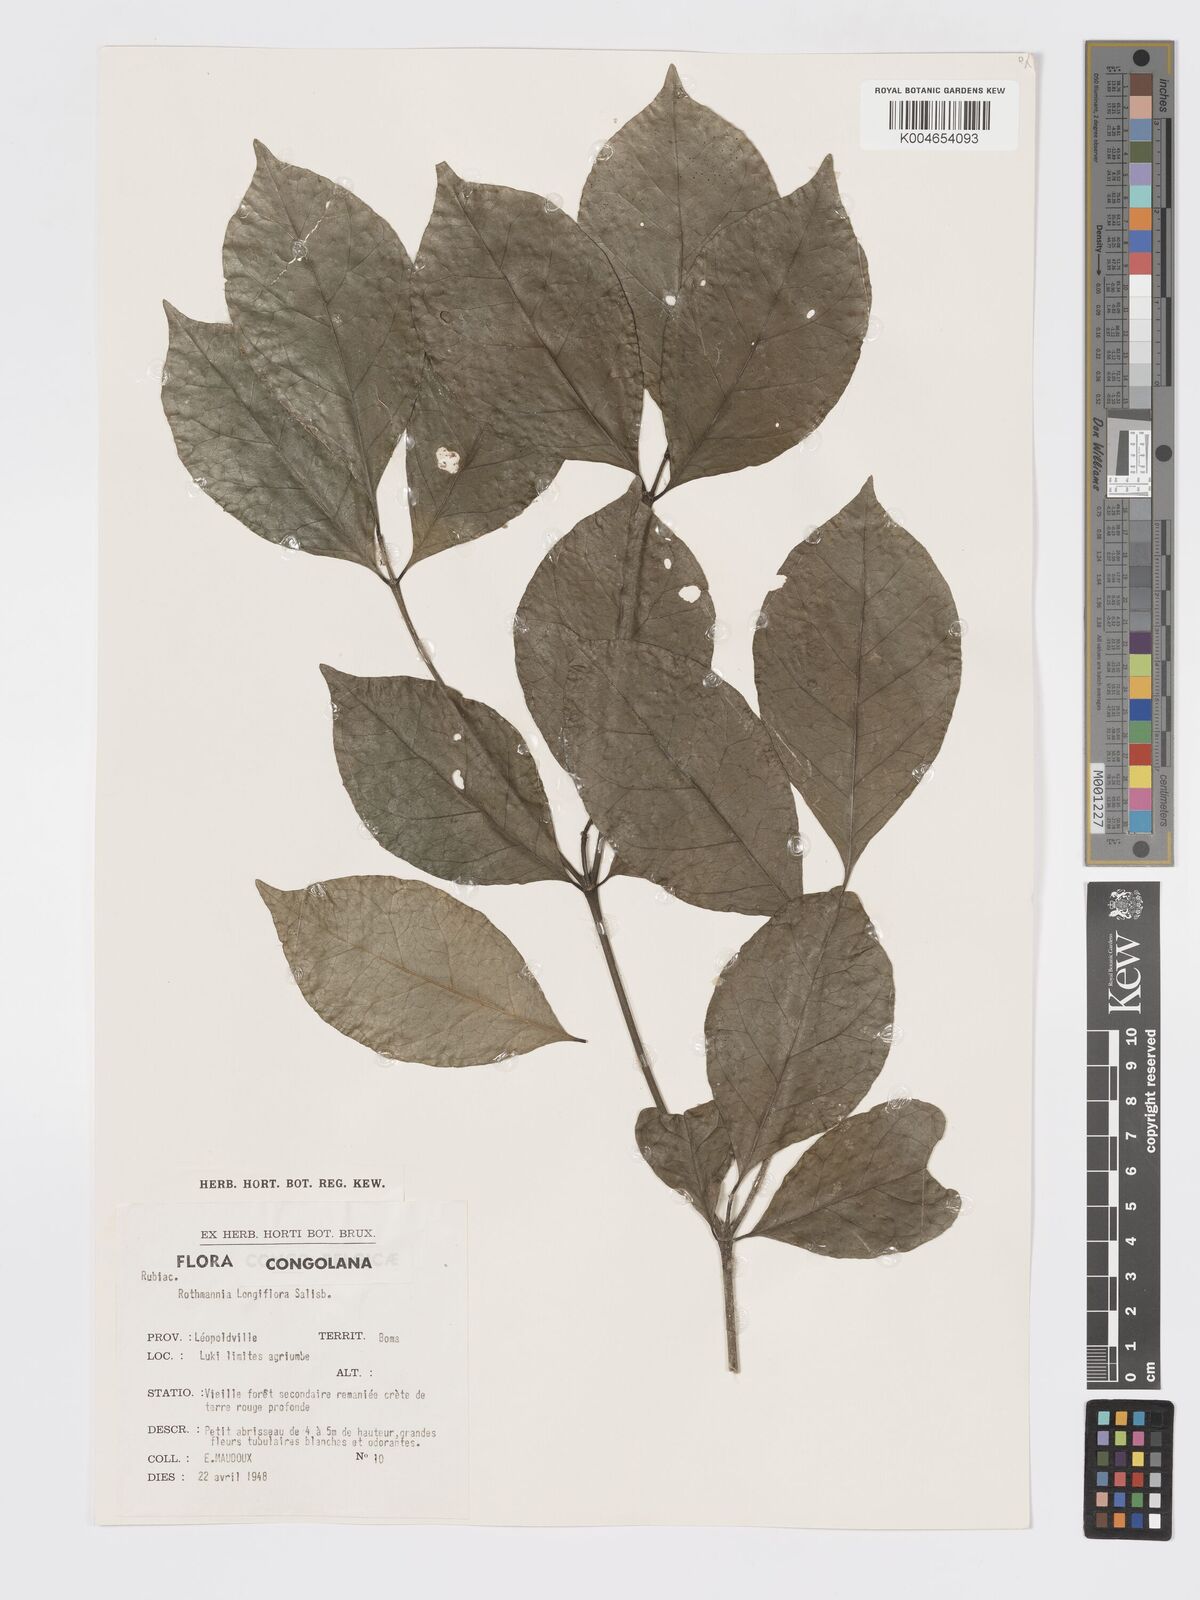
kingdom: Plantae
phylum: Tracheophyta
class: Magnoliopsida
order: Gentianales
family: Rubiaceae
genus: Rothmannia
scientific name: Rothmannia longiflora
